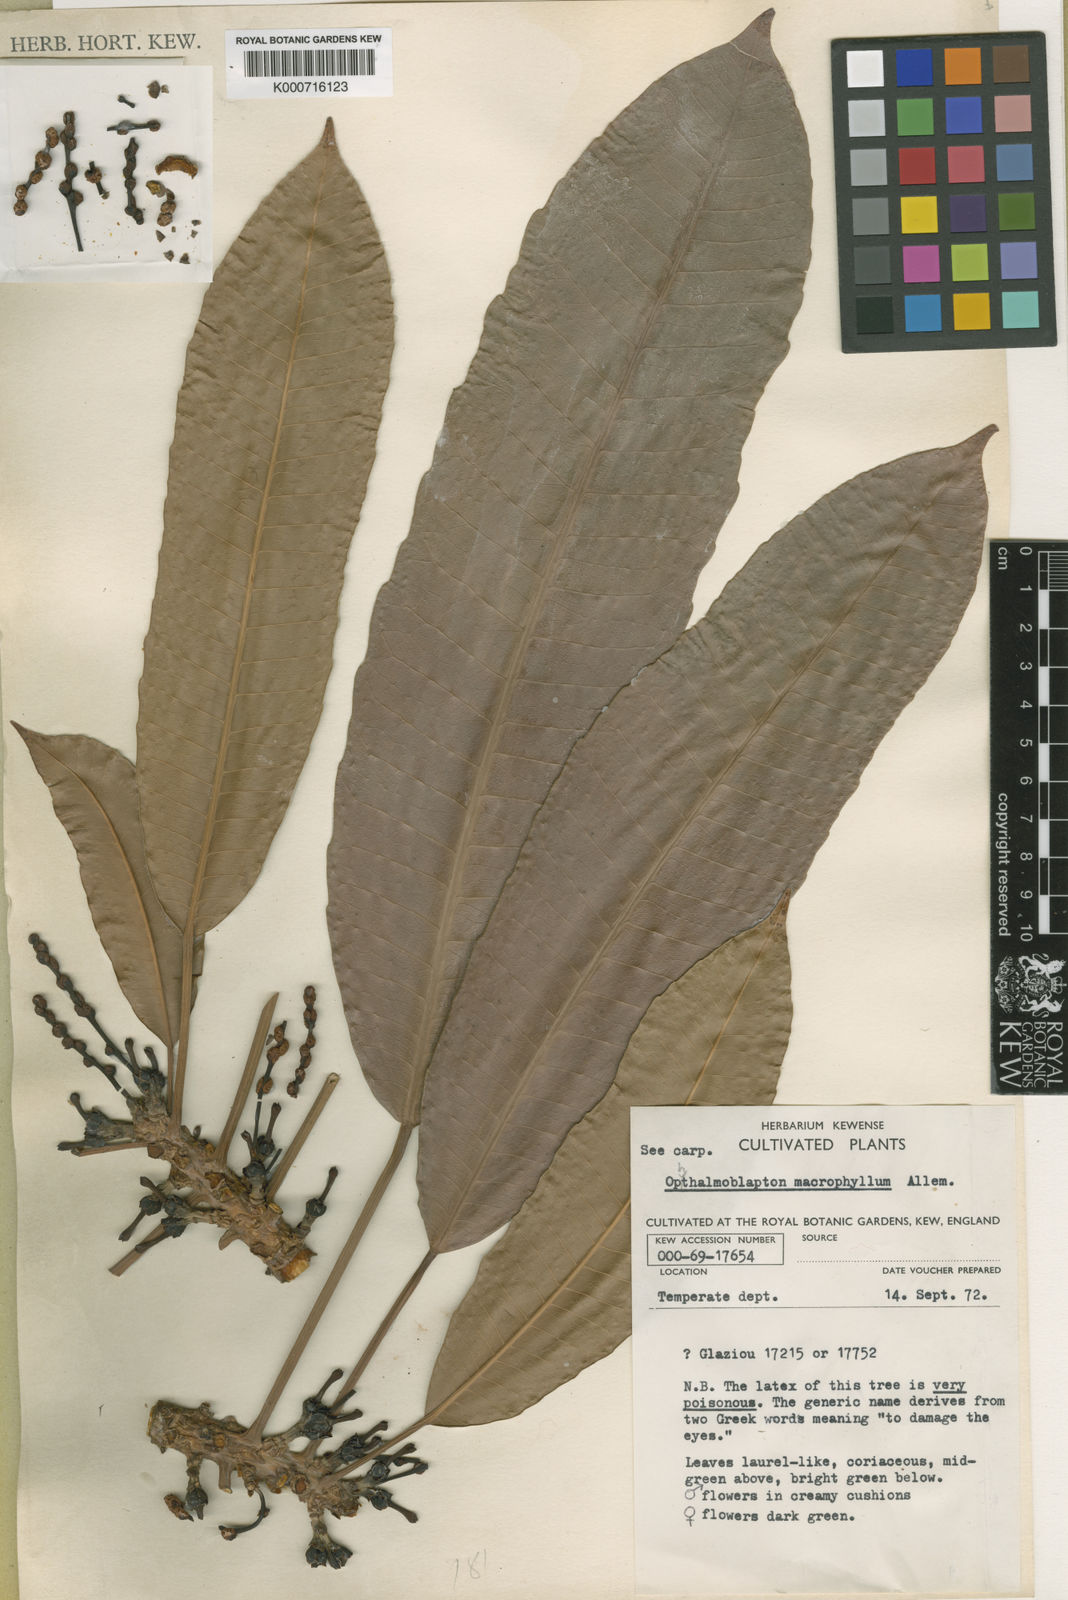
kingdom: Plantae
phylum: Tracheophyta
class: Magnoliopsida
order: Malpighiales
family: Euphorbiaceae
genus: Ophthalmoblapton
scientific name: Ophthalmoblapton
